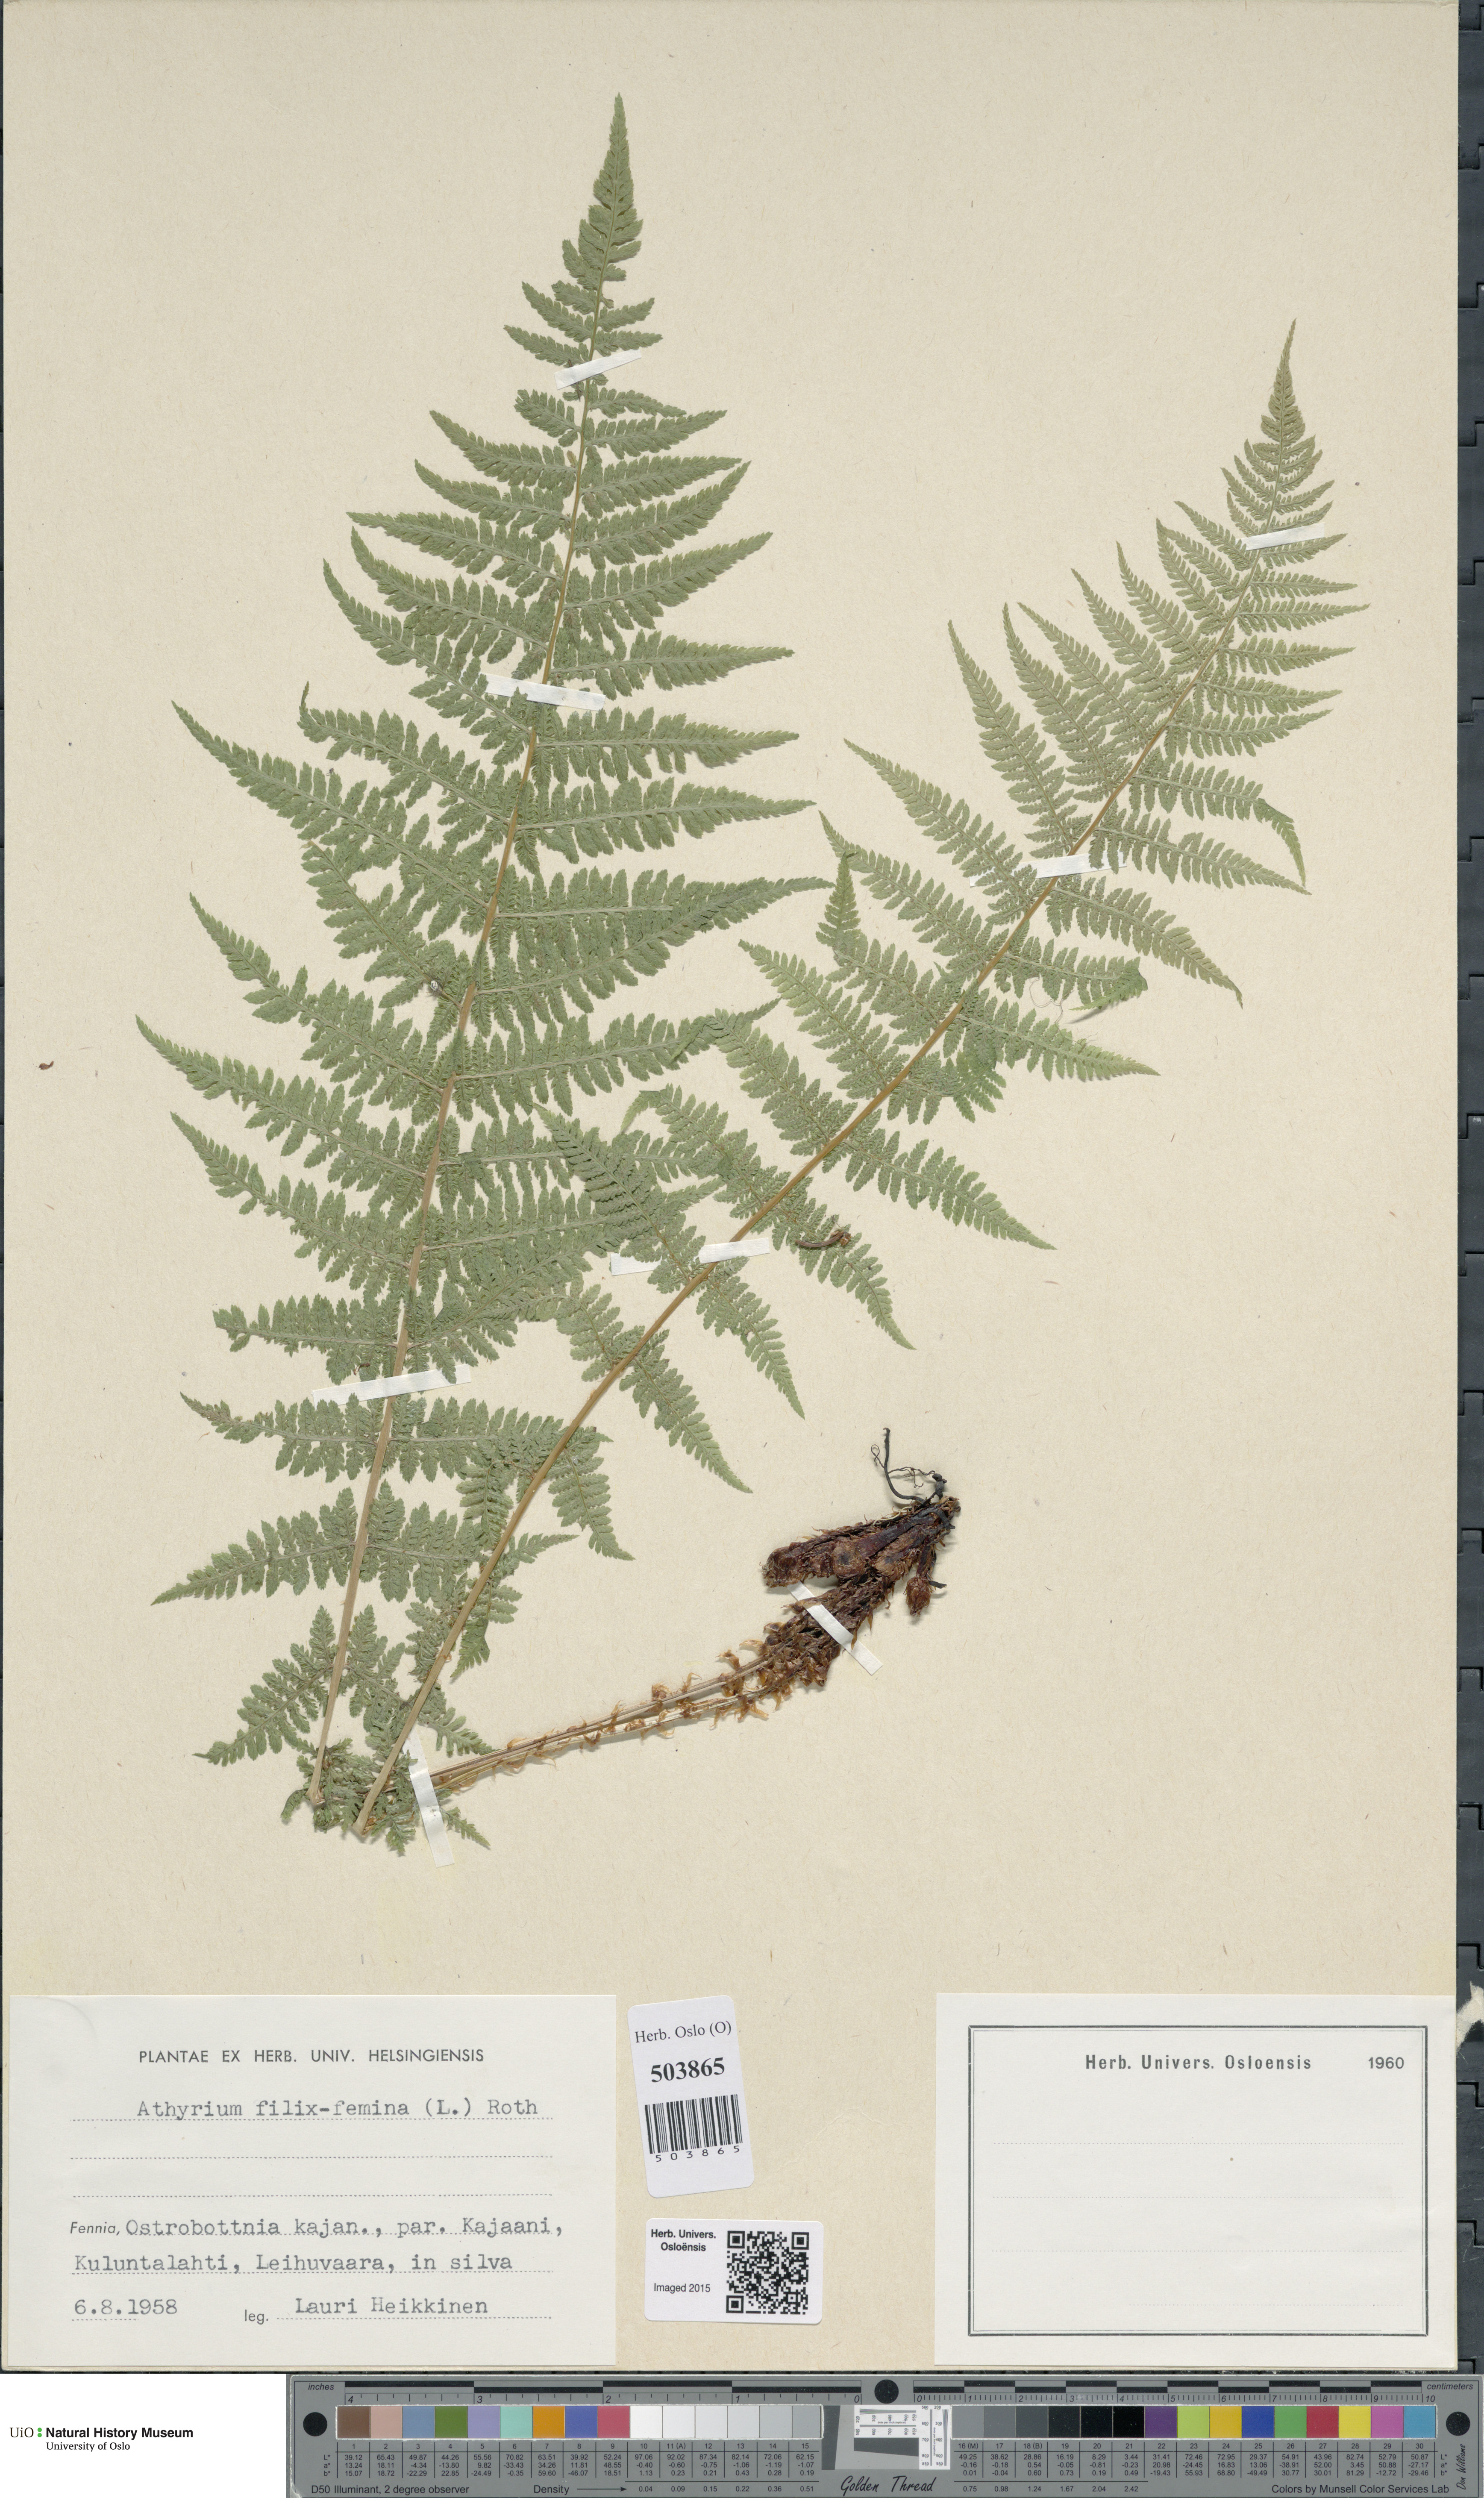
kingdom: Plantae
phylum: Tracheophyta
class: Polypodiopsida
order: Polypodiales
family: Athyriaceae
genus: Athyrium
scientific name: Athyrium filix-femina
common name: Lady fern
